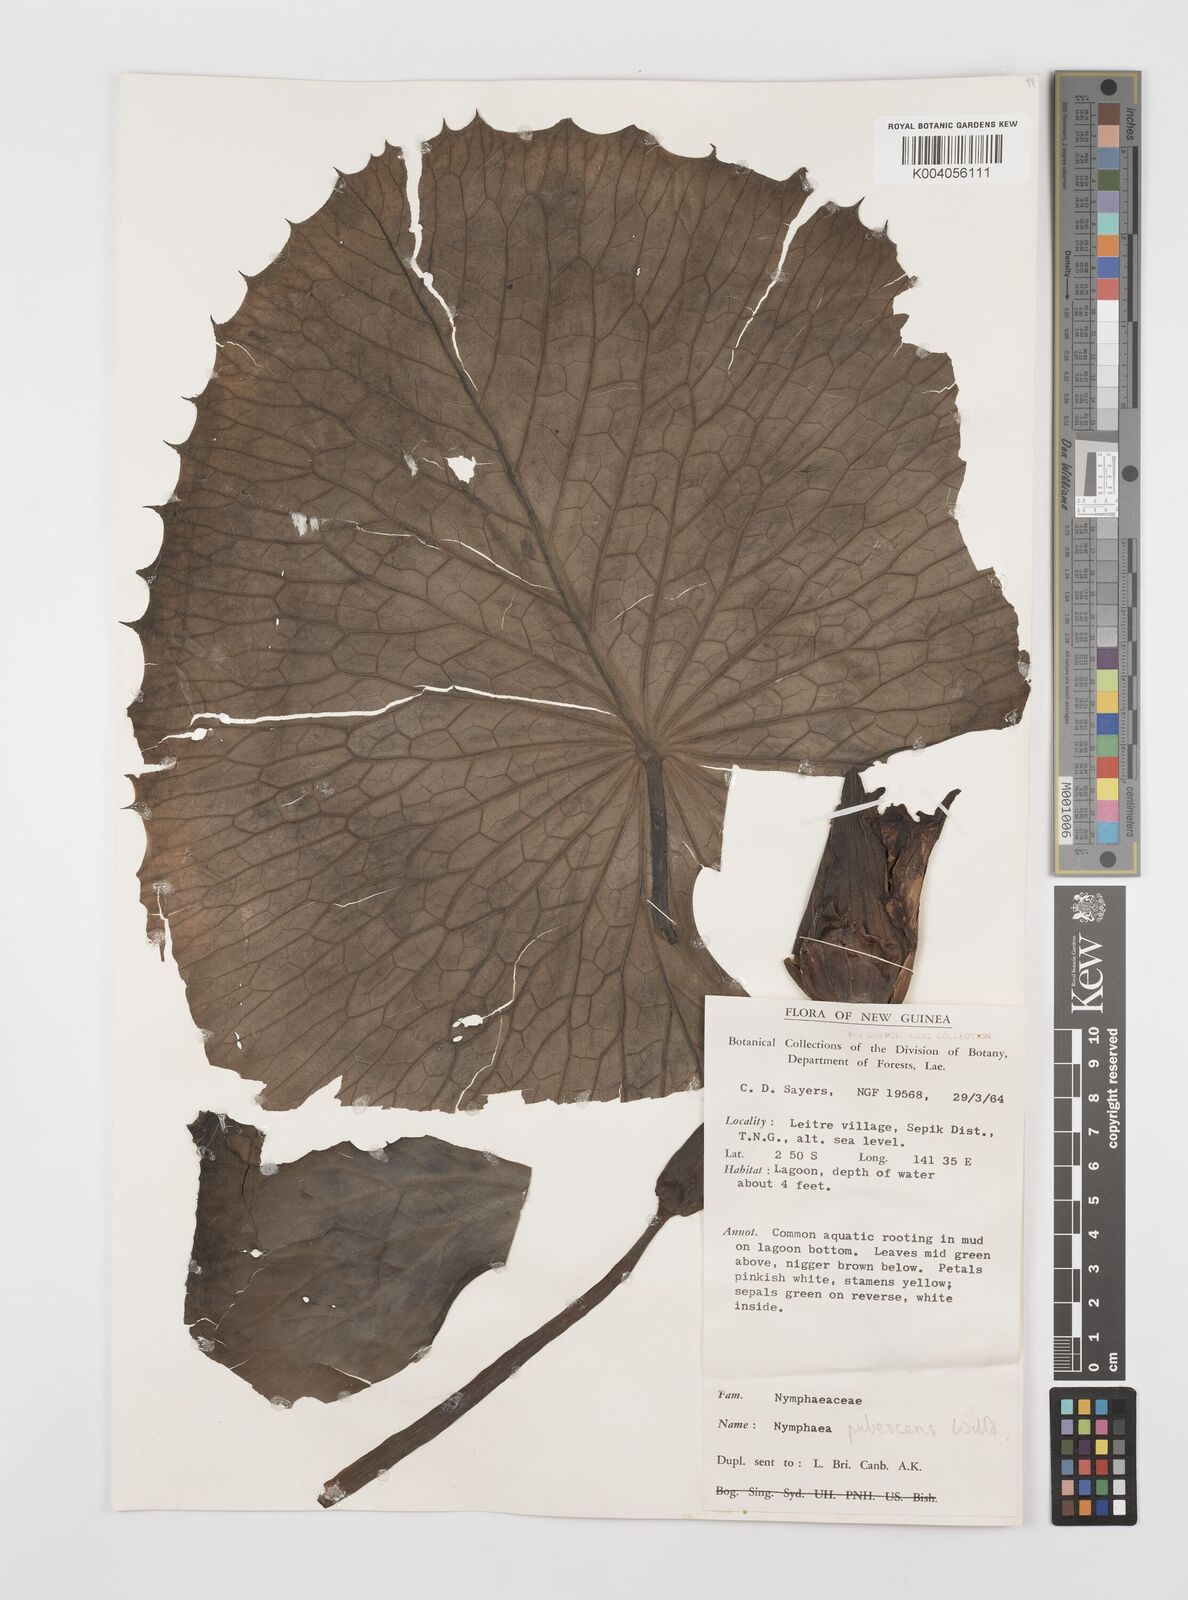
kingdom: Plantae
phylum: Tracheophyta
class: Magnoliopsida
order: Nymphaeales
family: Nymphaeaceae
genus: Nymphaea
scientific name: Nymphaea pubescens
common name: Hairy water lily
